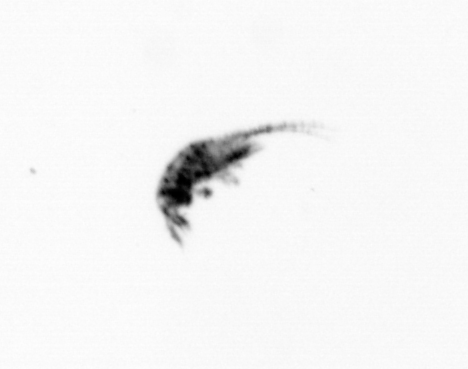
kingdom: Animalia
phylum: Arthropoda
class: Copepoda
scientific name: Copepoda
